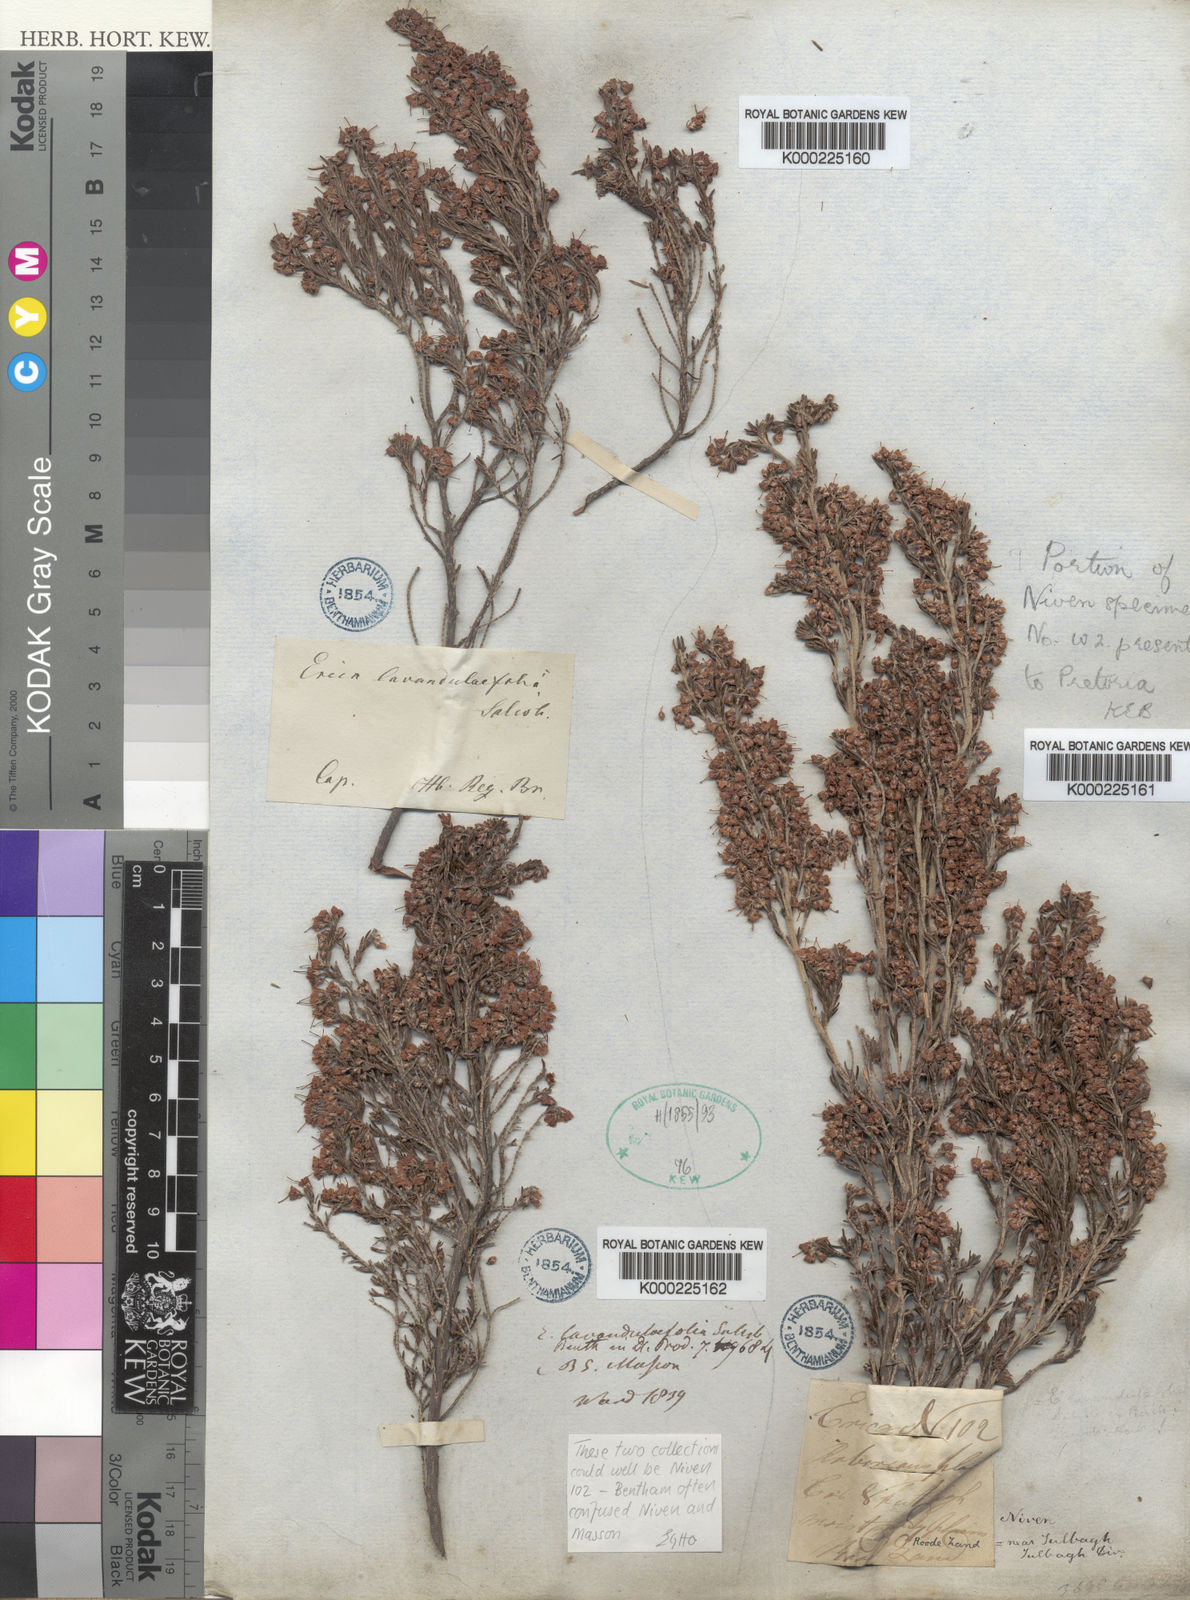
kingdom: Plantae
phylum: Tracheophyta
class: Magnoliopsida
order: Ericales
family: Ericaceae
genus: Erica
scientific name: Erica lavandulifolia
